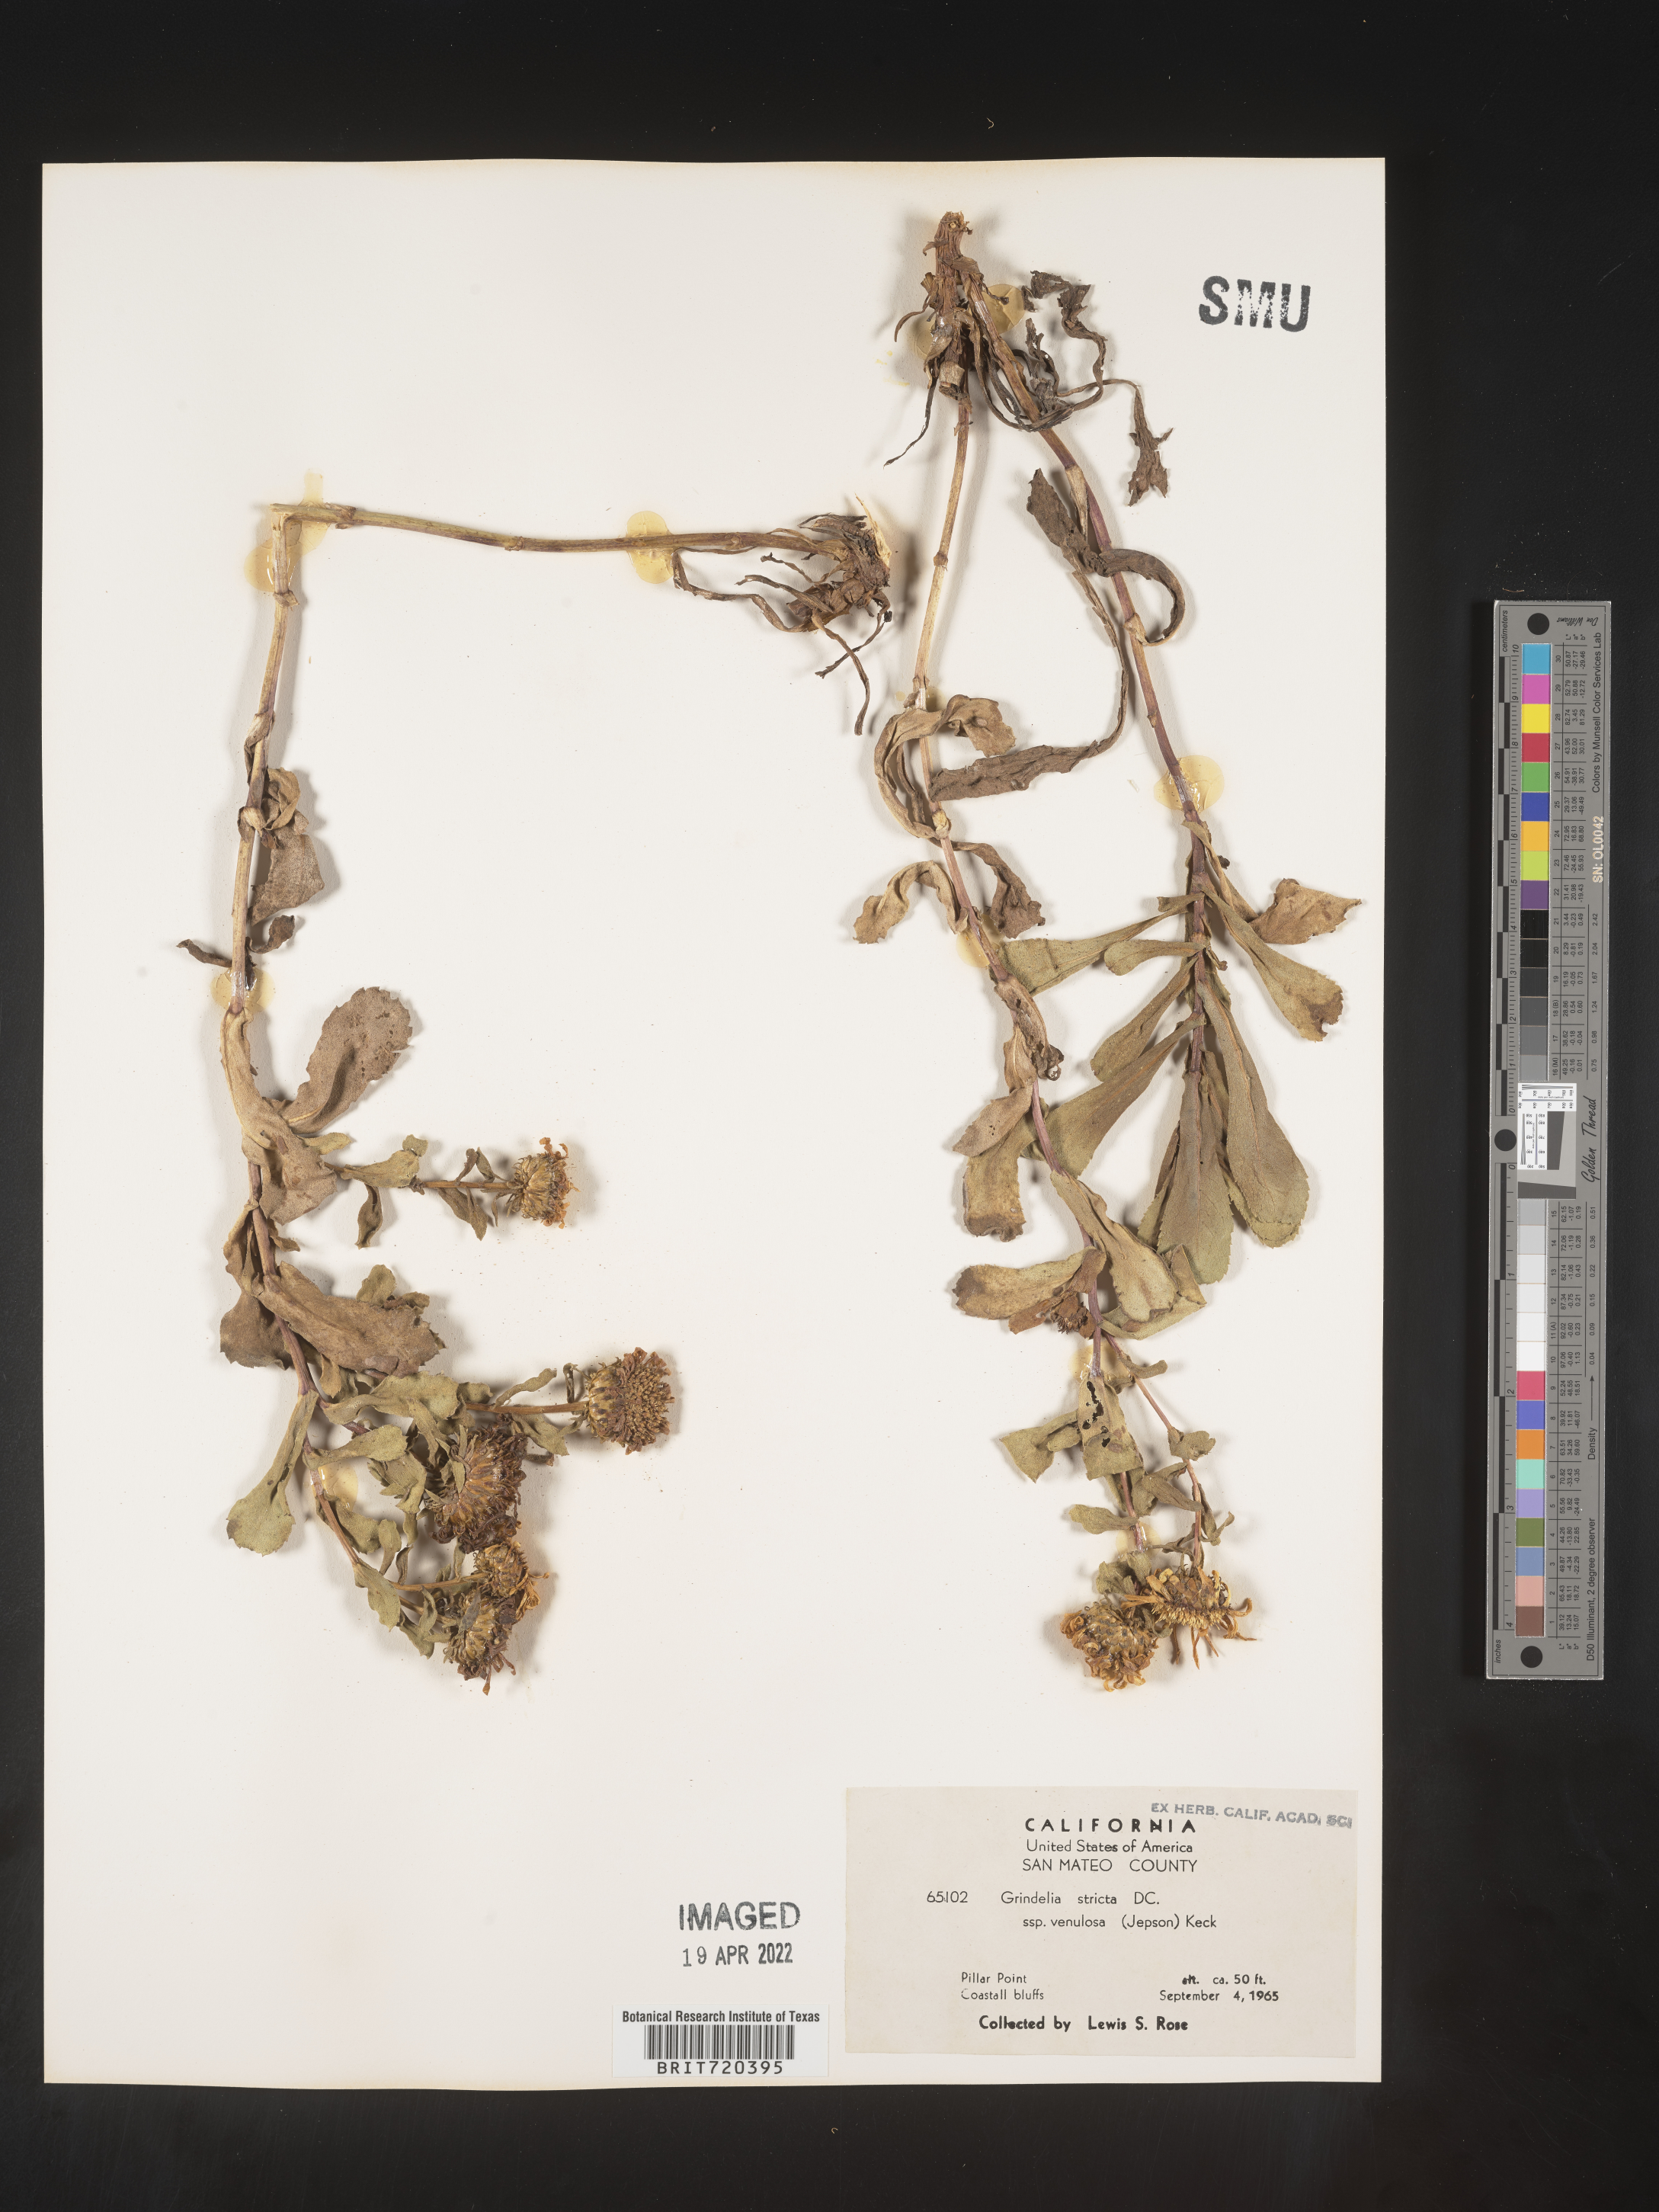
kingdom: Plantae
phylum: Tracheophyta
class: Magnoliopsida
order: Asterales
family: Asteraceae
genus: Grindelia
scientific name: Grindelia hirsutula
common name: Hairy gumweed
